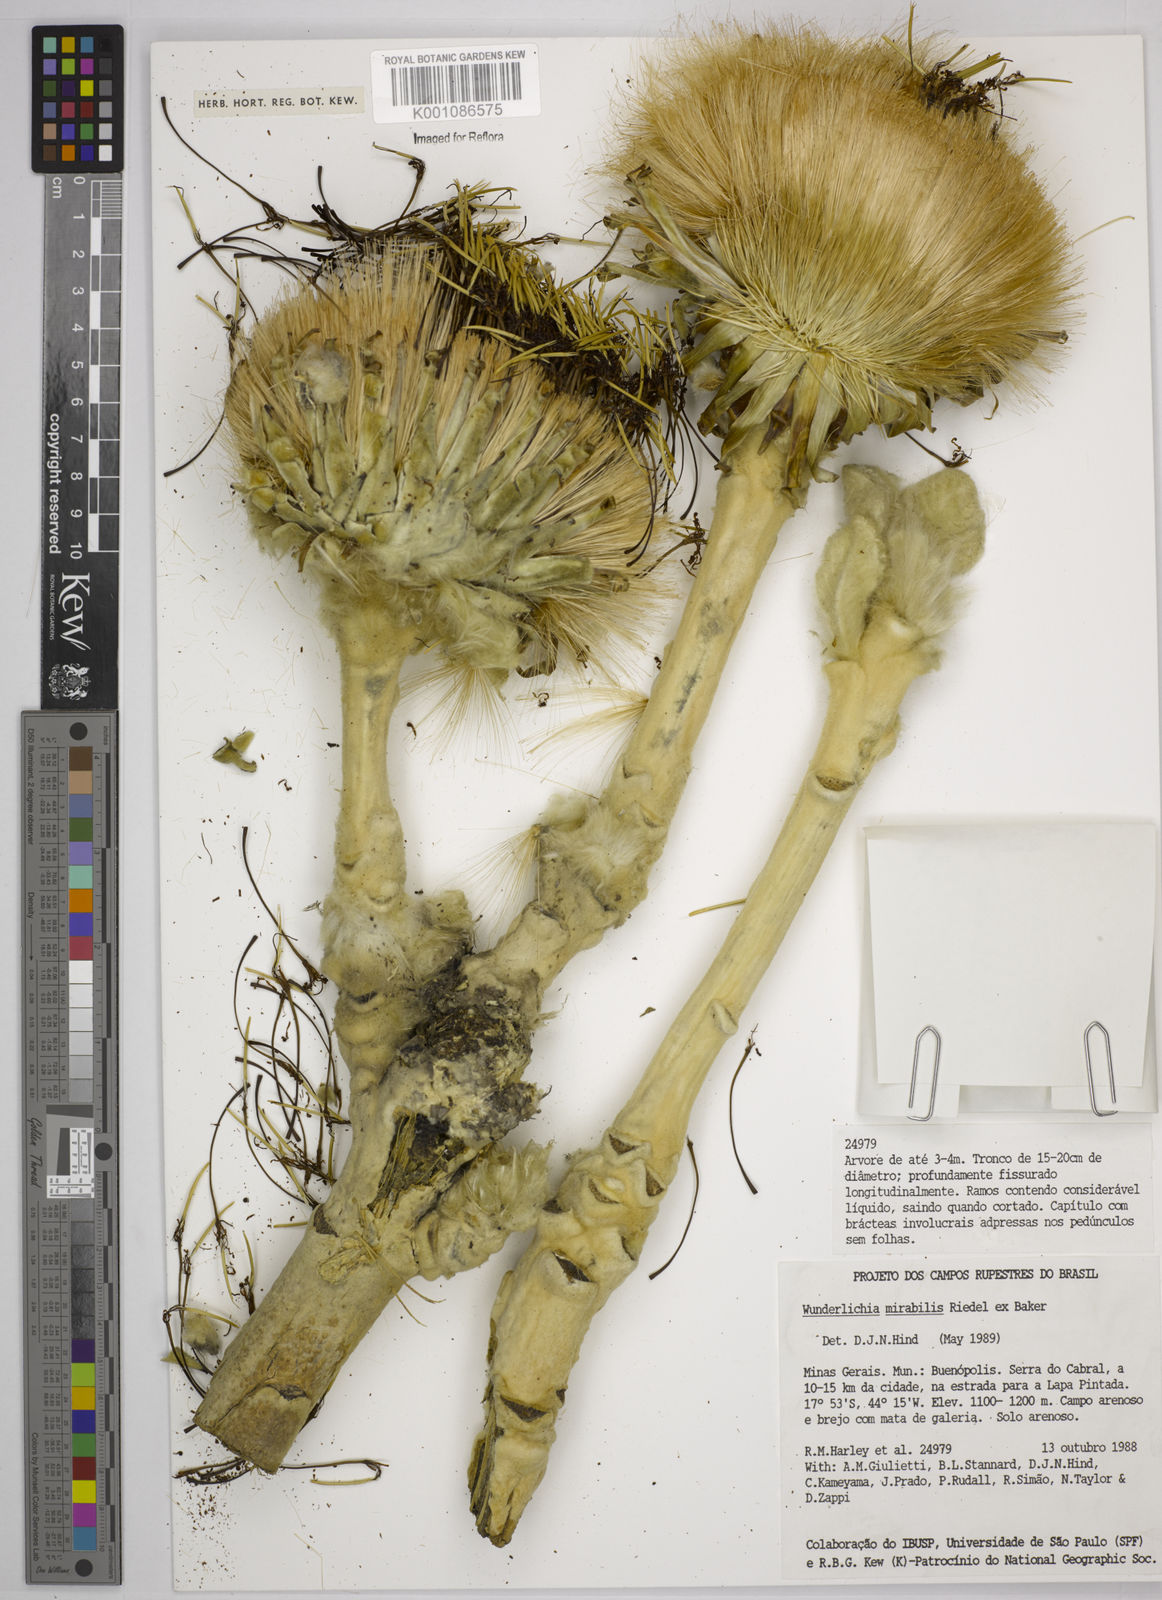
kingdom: Plantae
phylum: Tracheophyta
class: Magnoliopsida
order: Asterales
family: Asteraceae
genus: Wunderlichia
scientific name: Wunderlichia mirabilis
